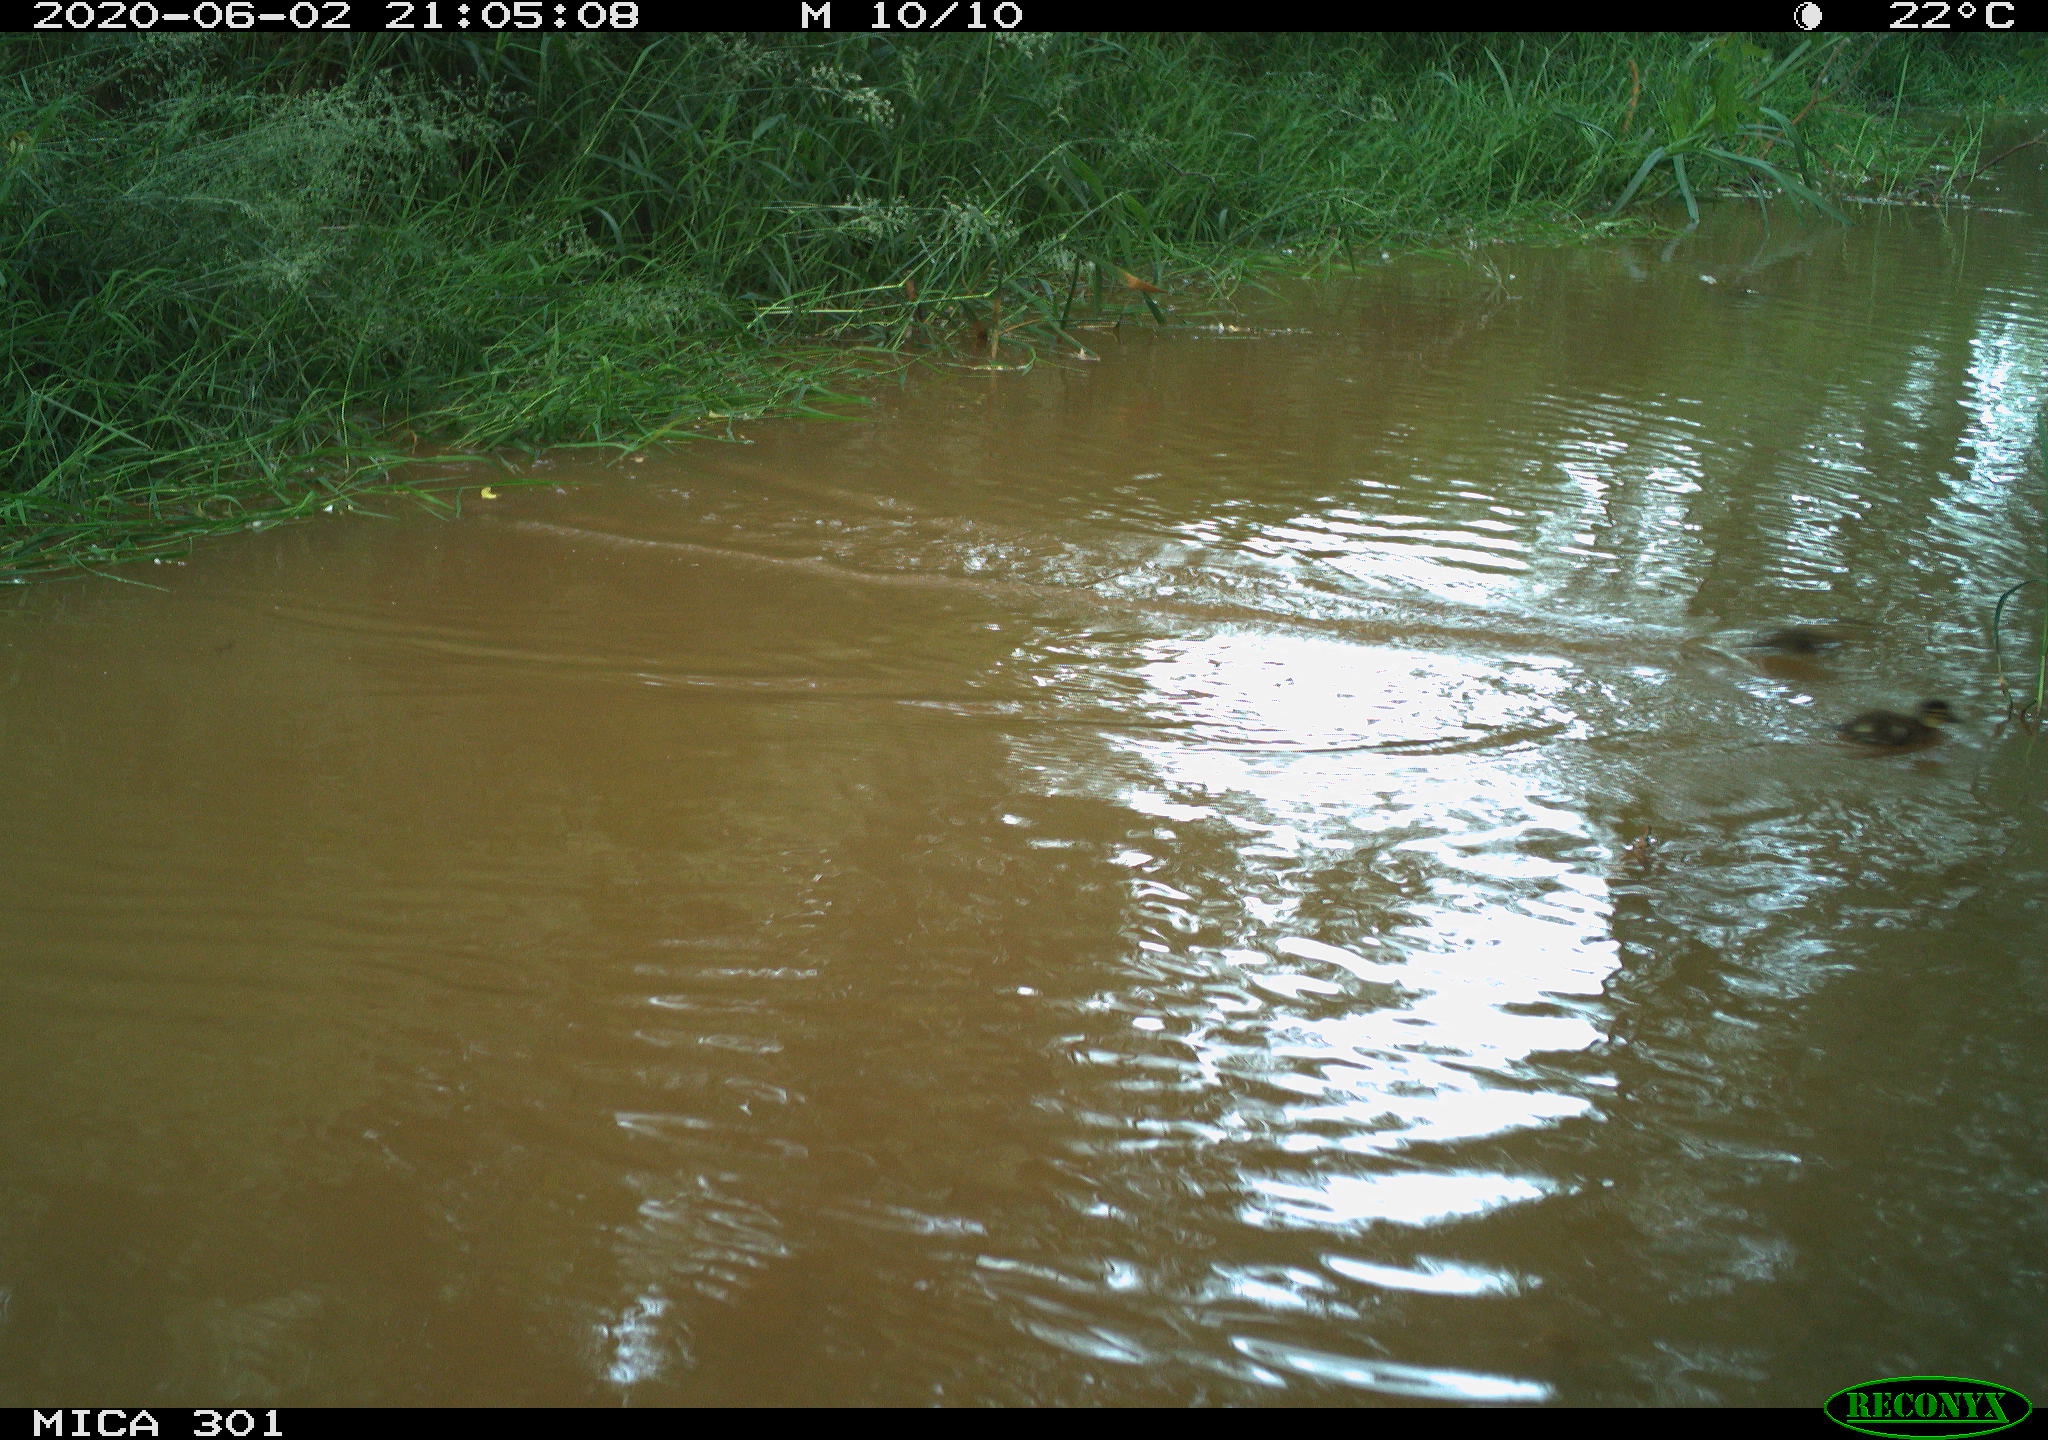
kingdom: Animalia
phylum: Chordata
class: Aves
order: Anseriformes
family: Anatidae
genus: Aix
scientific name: Aix galericulata
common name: Mandarin duck
